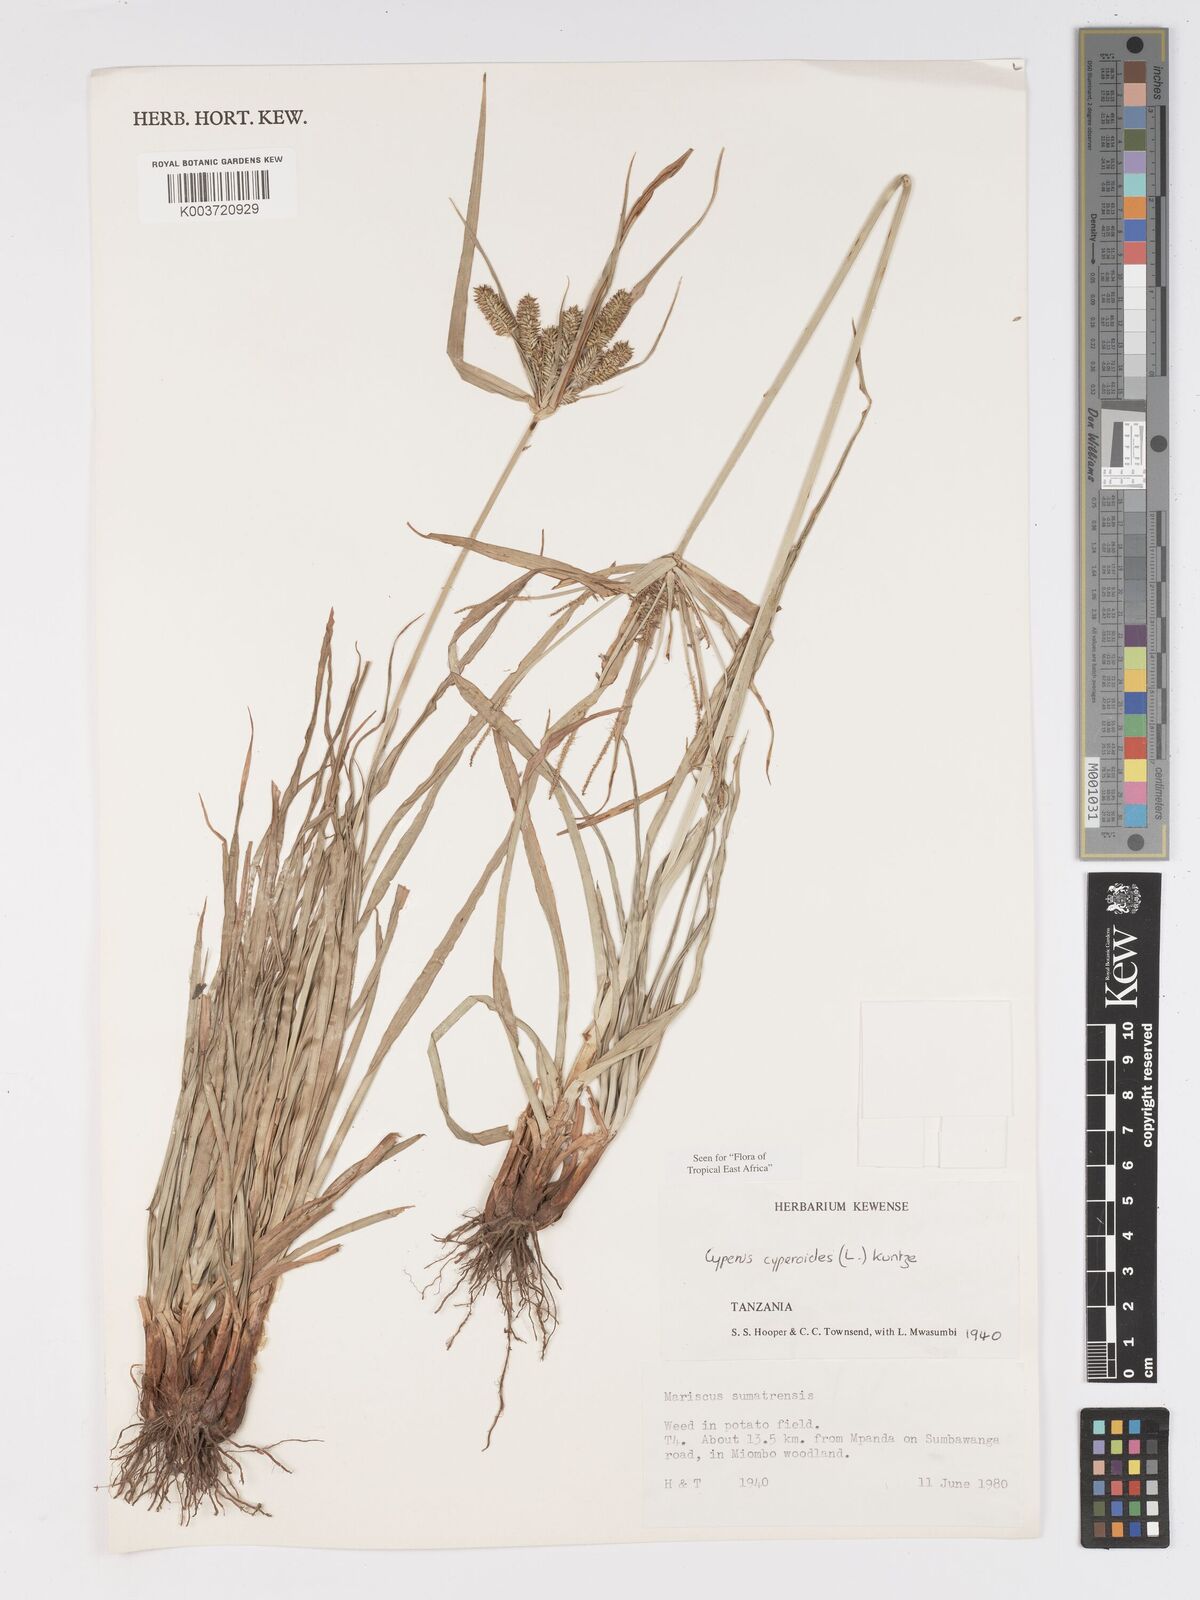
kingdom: Plantae
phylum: Tracheophyta
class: Liliopsida
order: Poales
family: Cyperaceae
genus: Cyperus
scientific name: Cyperus cyperoides
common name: Pacific island flat sedge
